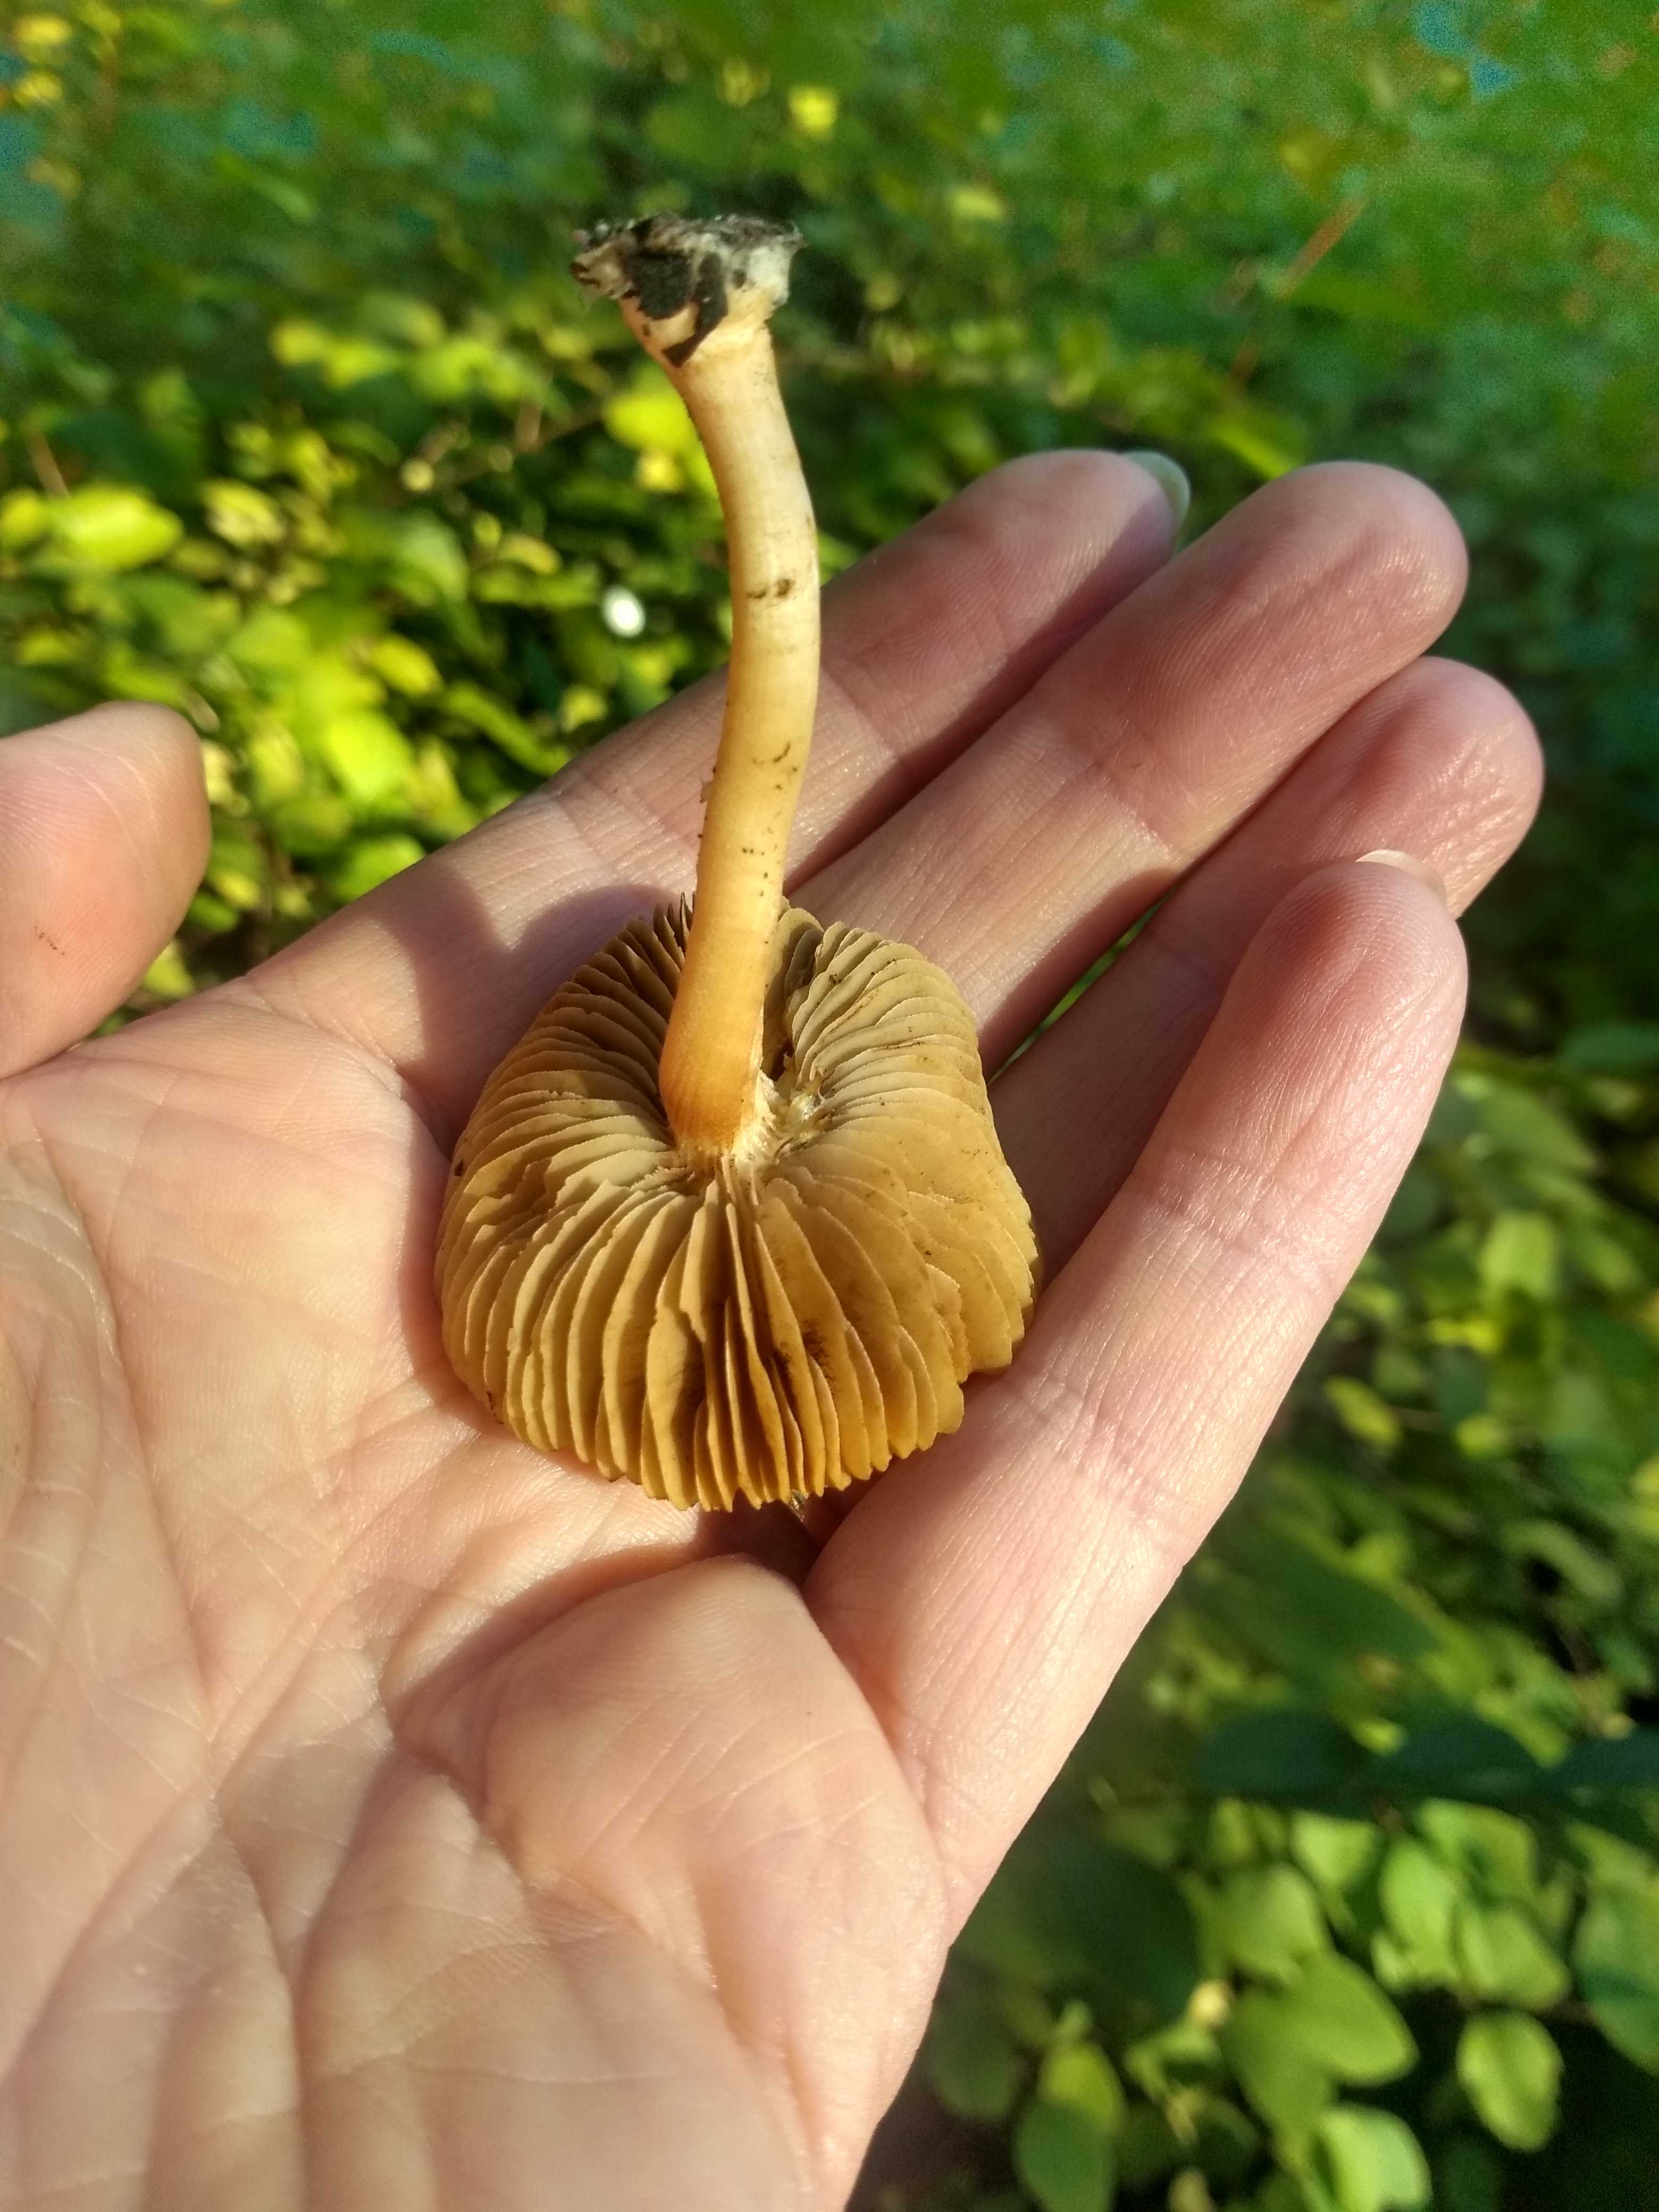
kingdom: Fungi
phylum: Basidiomycota
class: Agaricomycetes
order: Agaricales
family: Inocybaceae
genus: Inocybe
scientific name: Inocybe
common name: trævlhat
